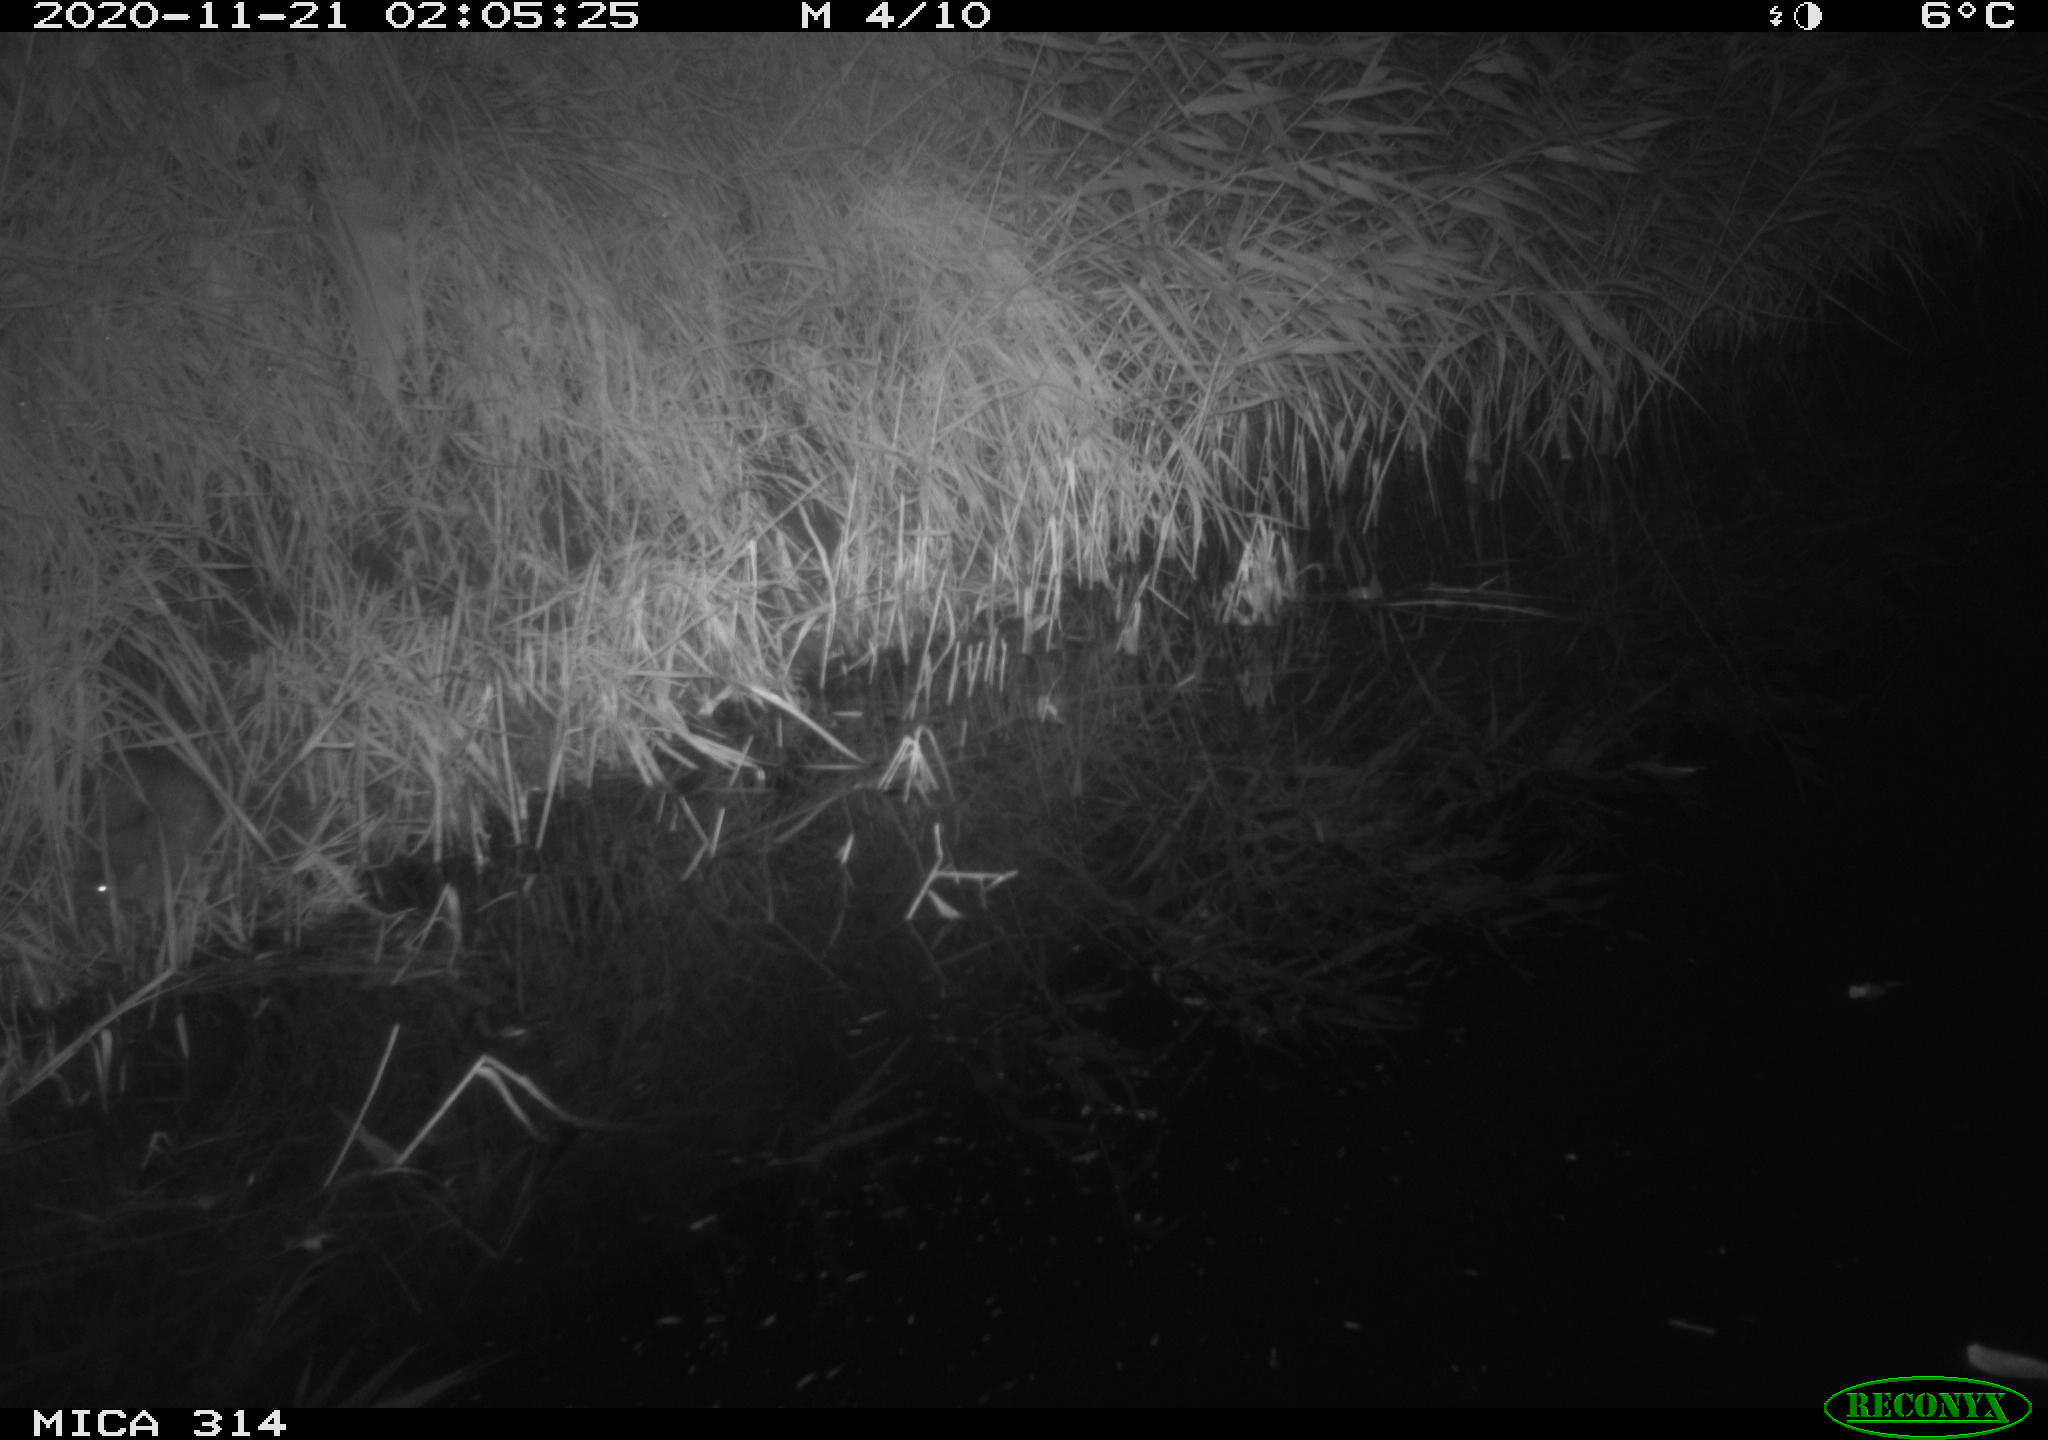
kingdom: Animalia
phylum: Chordata
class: Mammalia
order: Rodentia
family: Muridae
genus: Rattus
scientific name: Rattus norvegicus
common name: Brown rat
